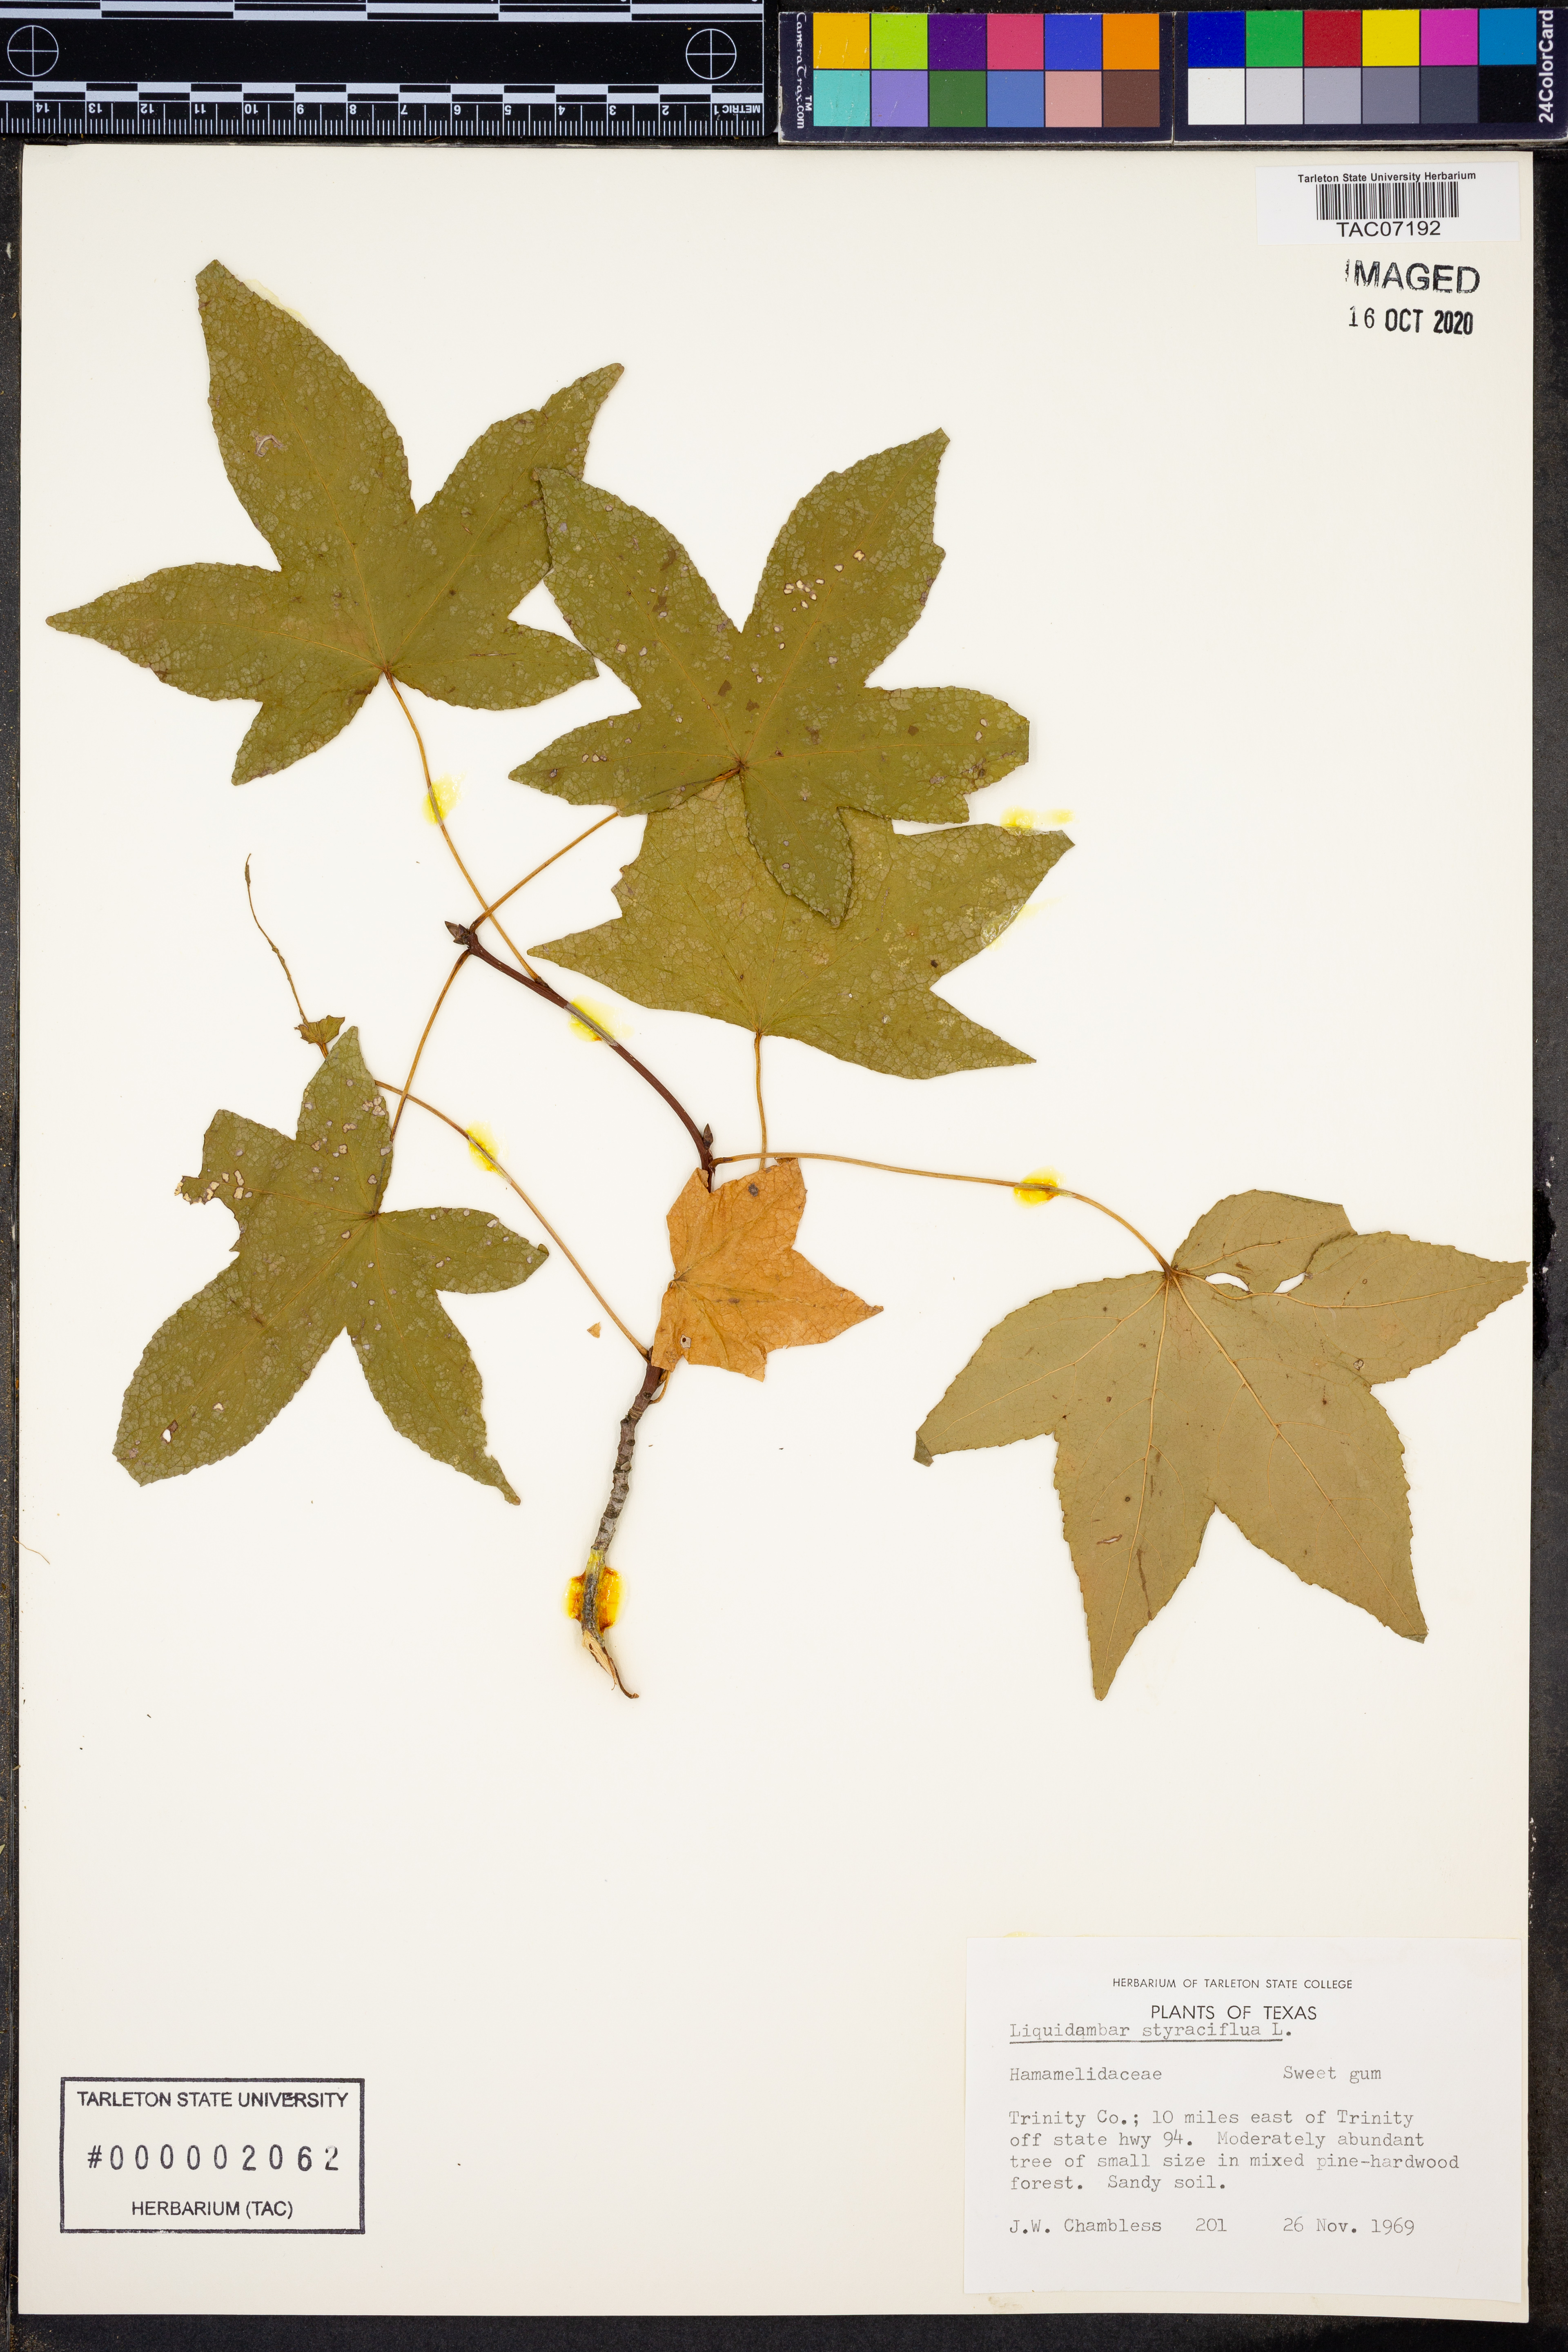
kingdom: Plantae
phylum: Tracheophyta
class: Magnoliopsida
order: Saxifragales
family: Altingiaceae
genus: Liquidambar
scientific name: Liquidambar styraciflua
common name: Sweet gum
